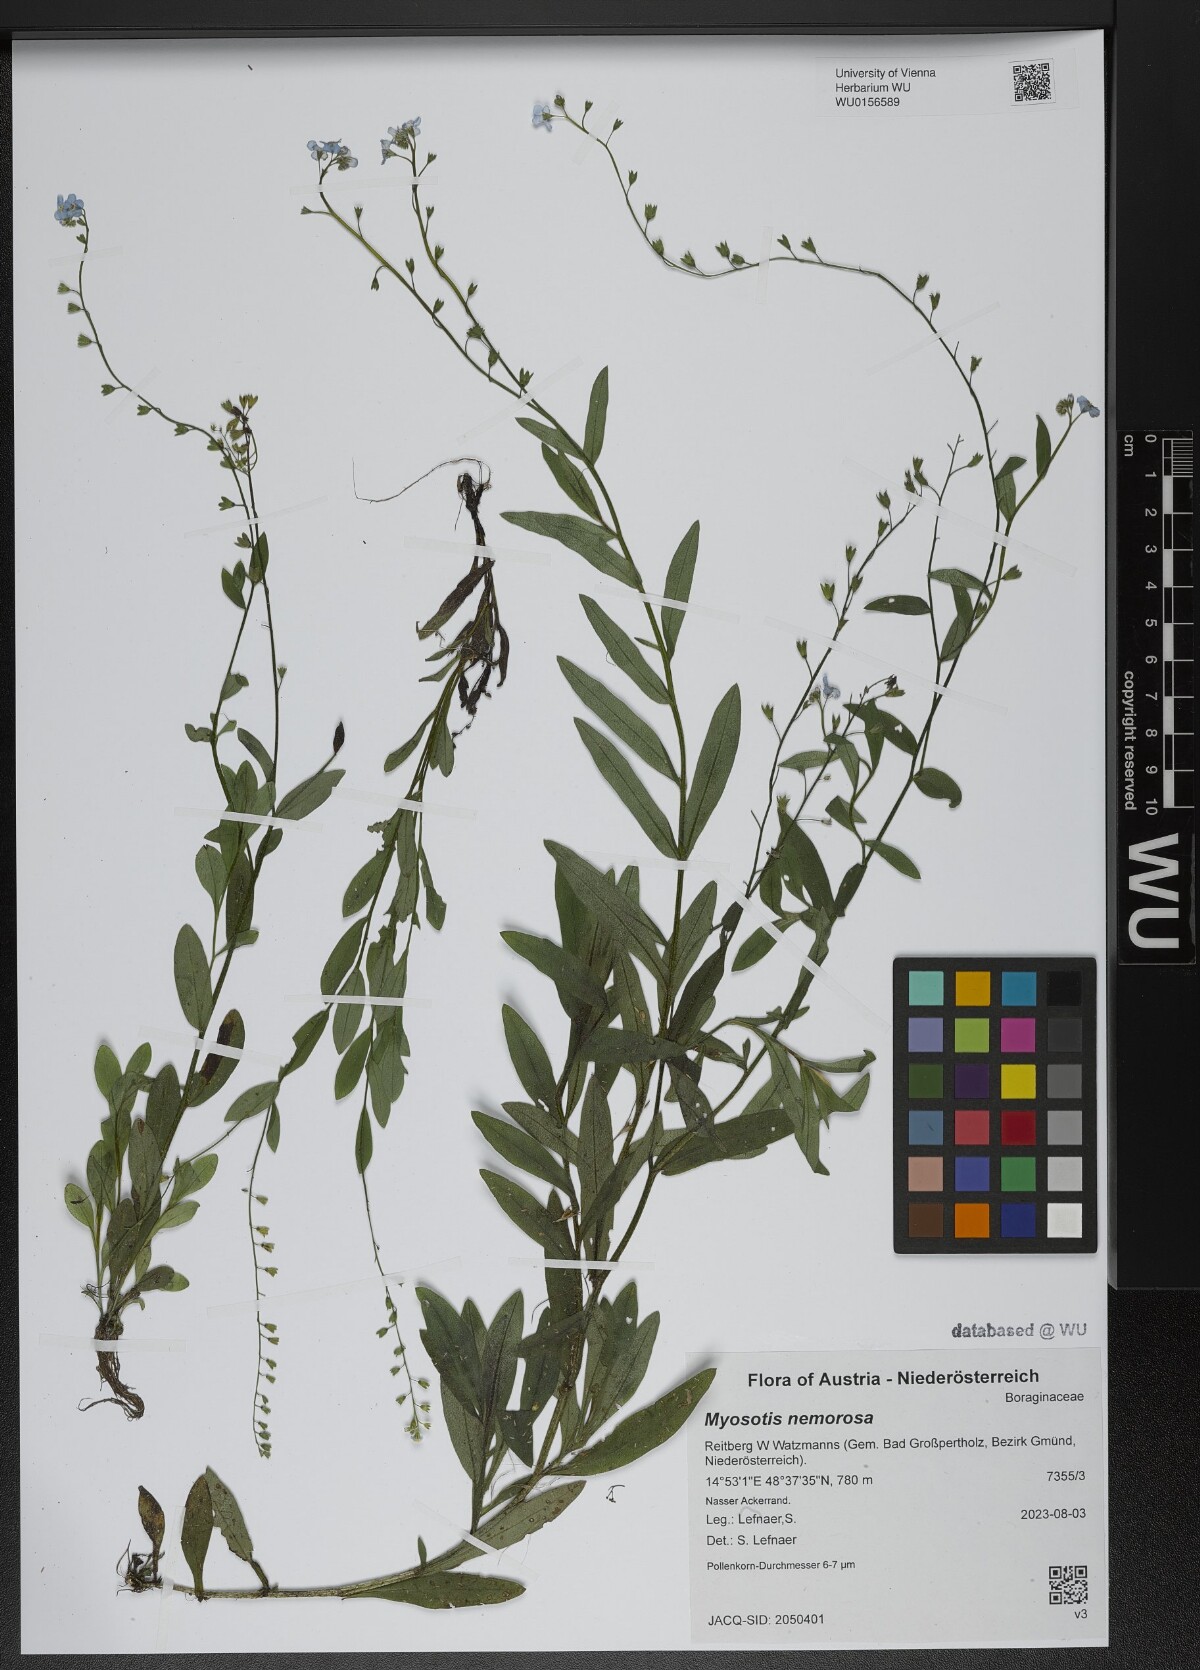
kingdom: Plantae
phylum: Tracheophyta
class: Magnoliopsida
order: Boraginales
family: Boraginaceae
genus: Myosotis
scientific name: Myosotis nemorosa
